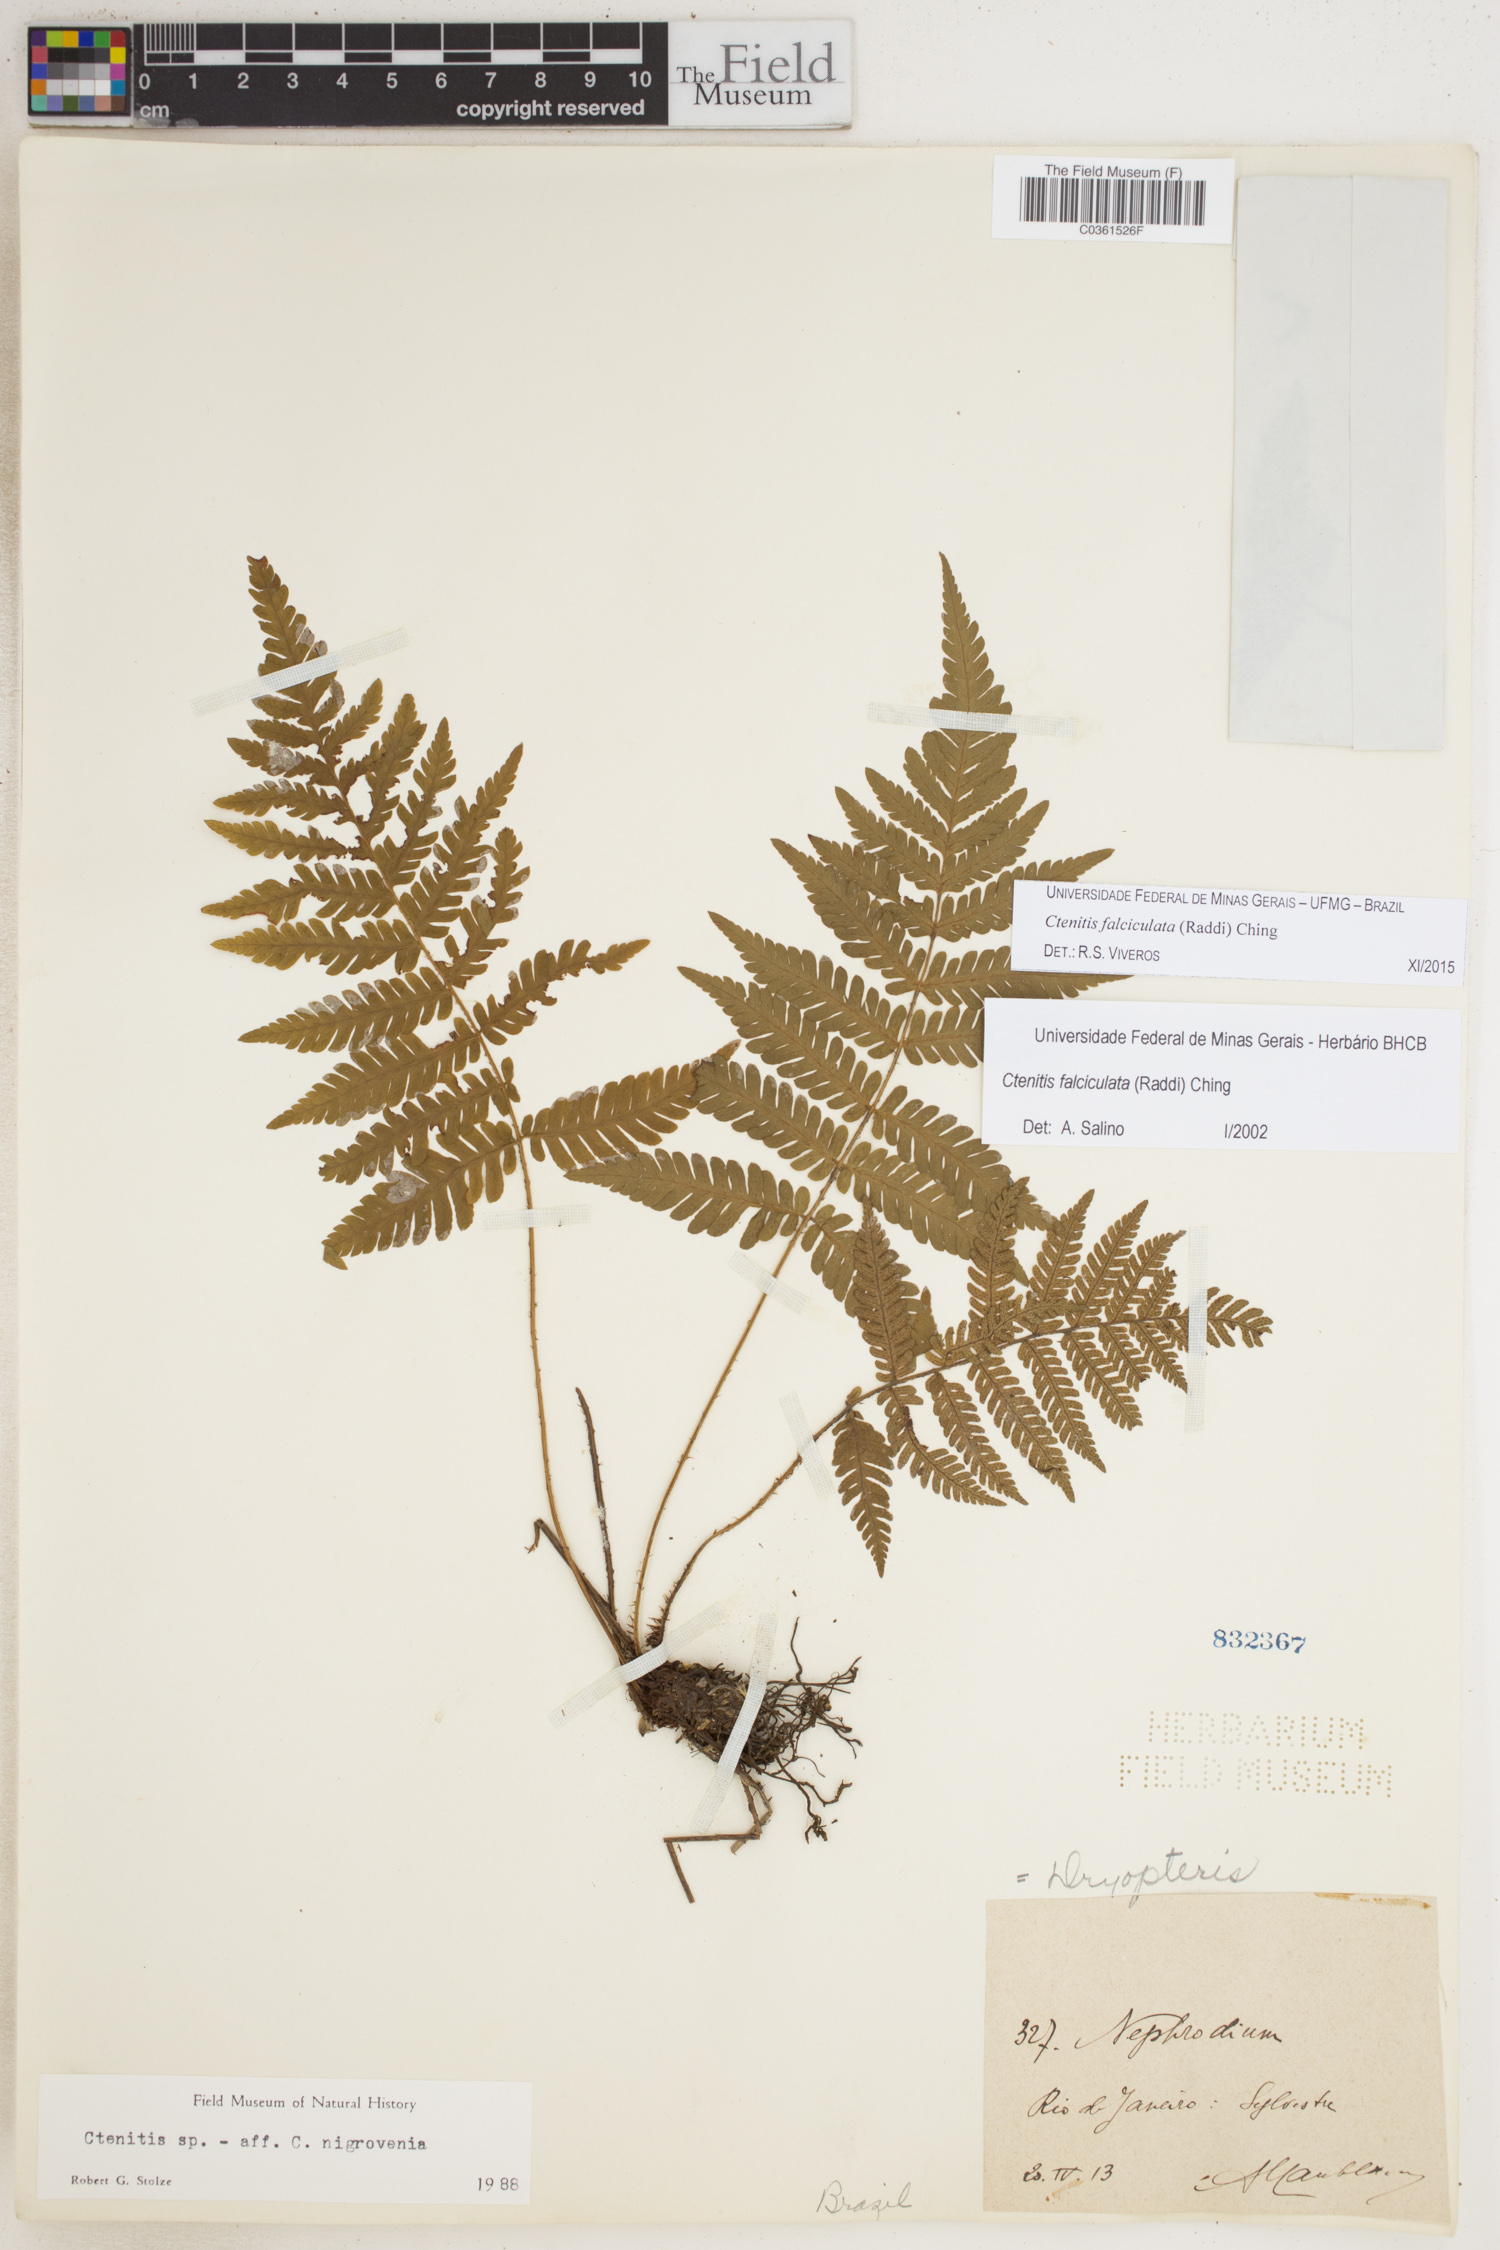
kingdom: Plantae
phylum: Tracheophyta
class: Polypodiopsida
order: Polypodiales
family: Dryopteridaceae
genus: Ctenitis
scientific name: Ctenitis falciculata
